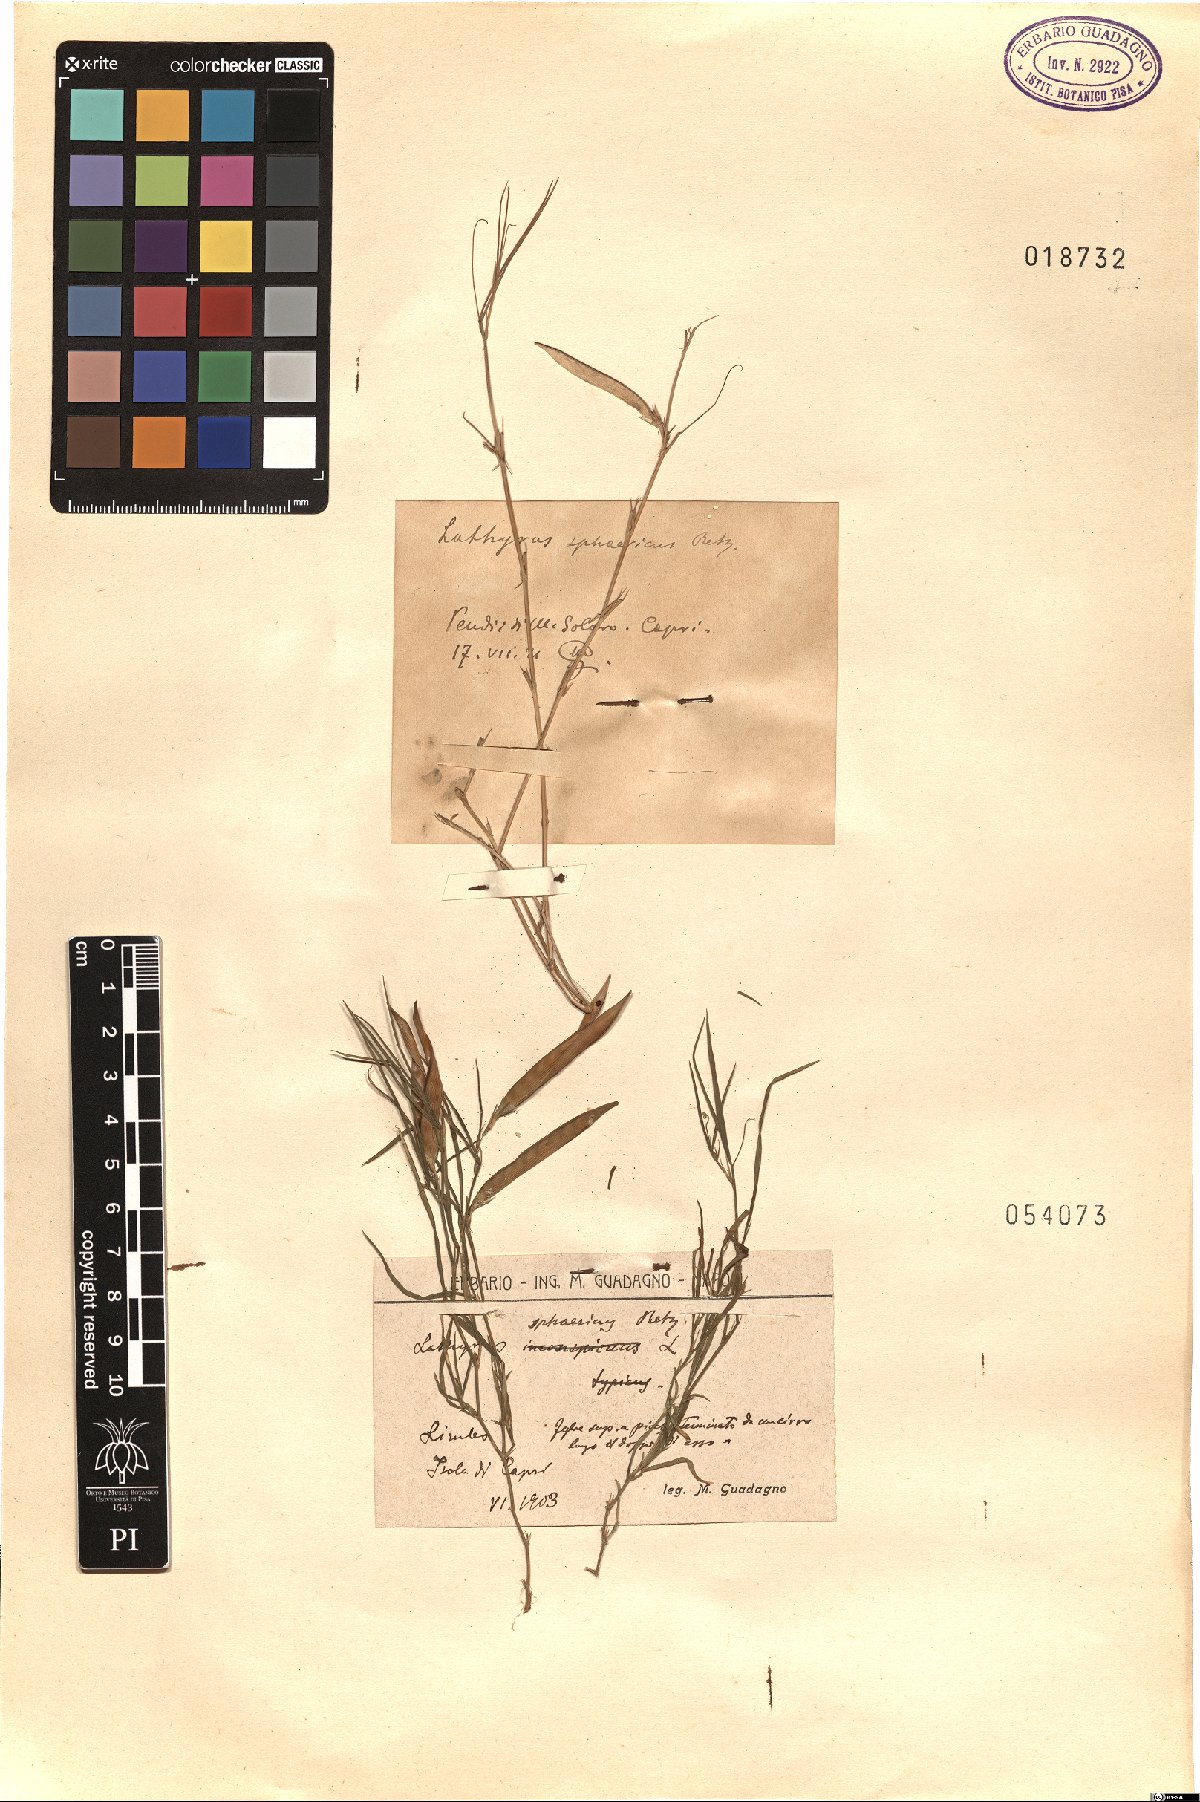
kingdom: Plantae
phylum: Tracheophyta
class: Magnoliopsida
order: Fabales
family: Fabaceae
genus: Lathyrus
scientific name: Lathyrus sphaericus
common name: Grass pea
